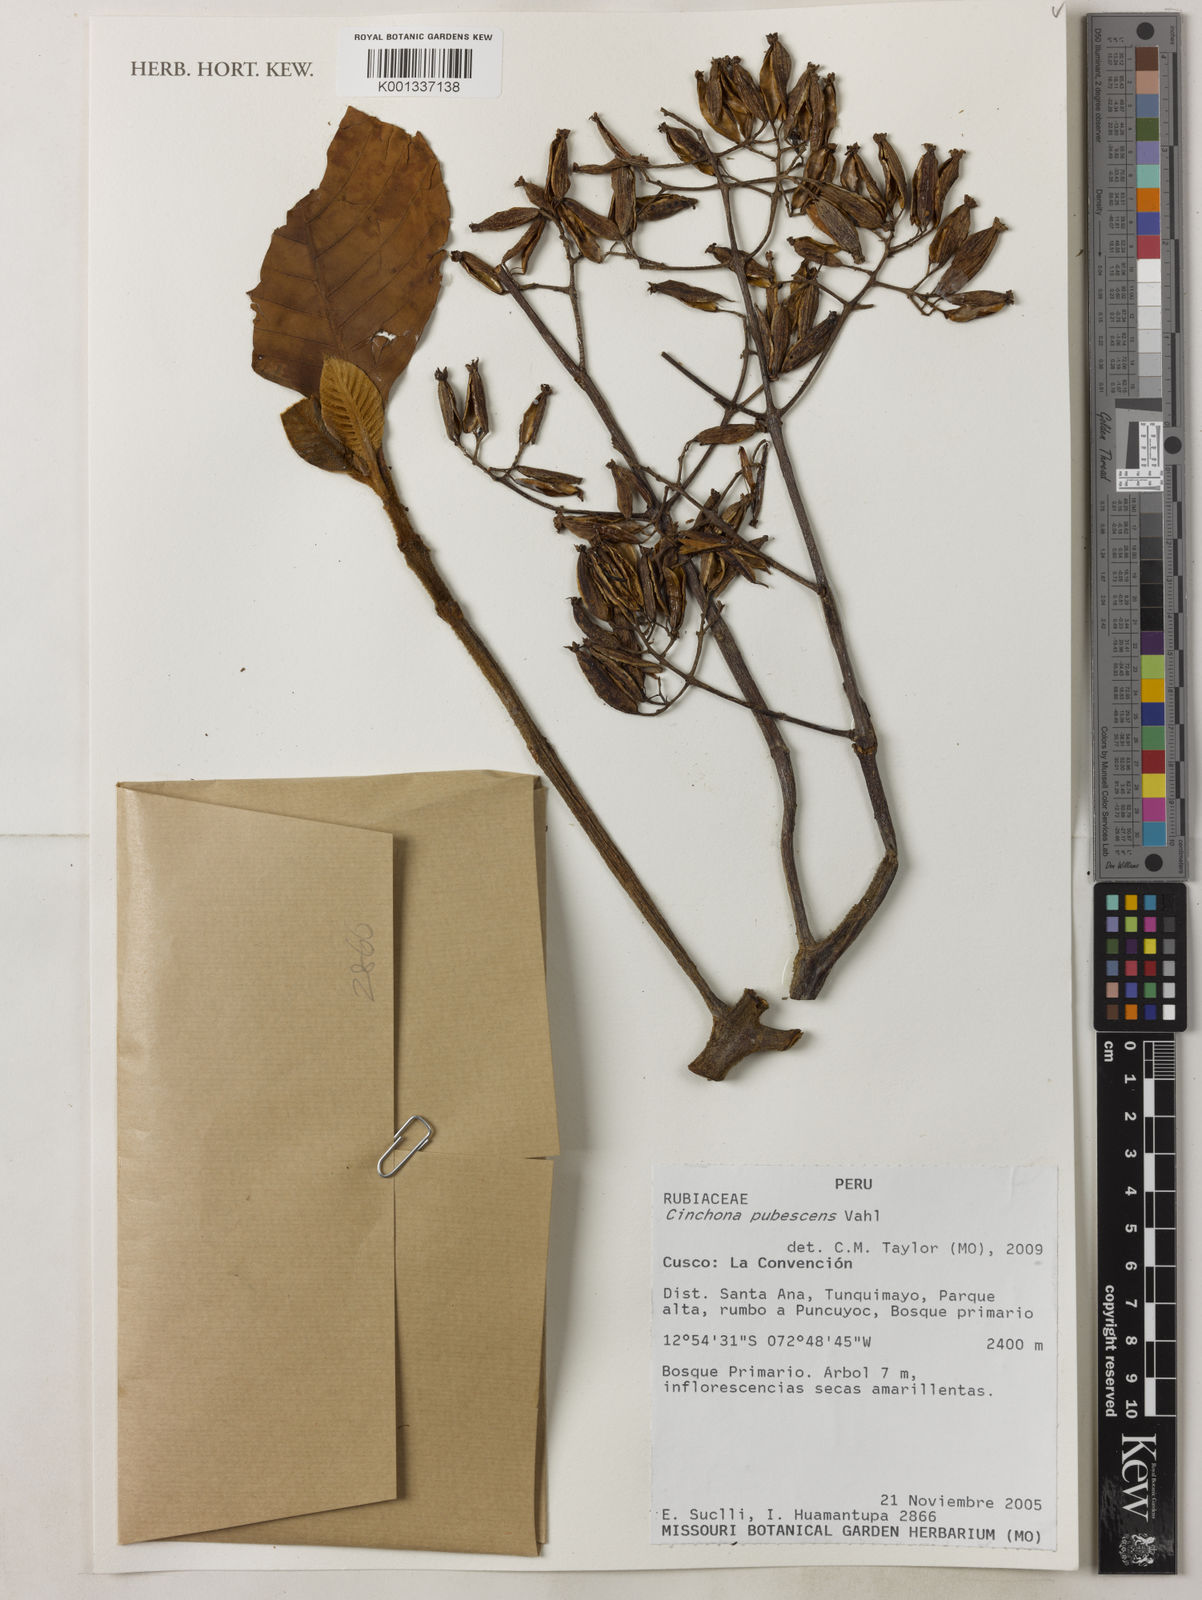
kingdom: Plantae
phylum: Tracheophyta
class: Magnoliopsida
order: Gentianales
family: Rubiaceae
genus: Cinchona
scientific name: Cinchona pubescens
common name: Quinine
